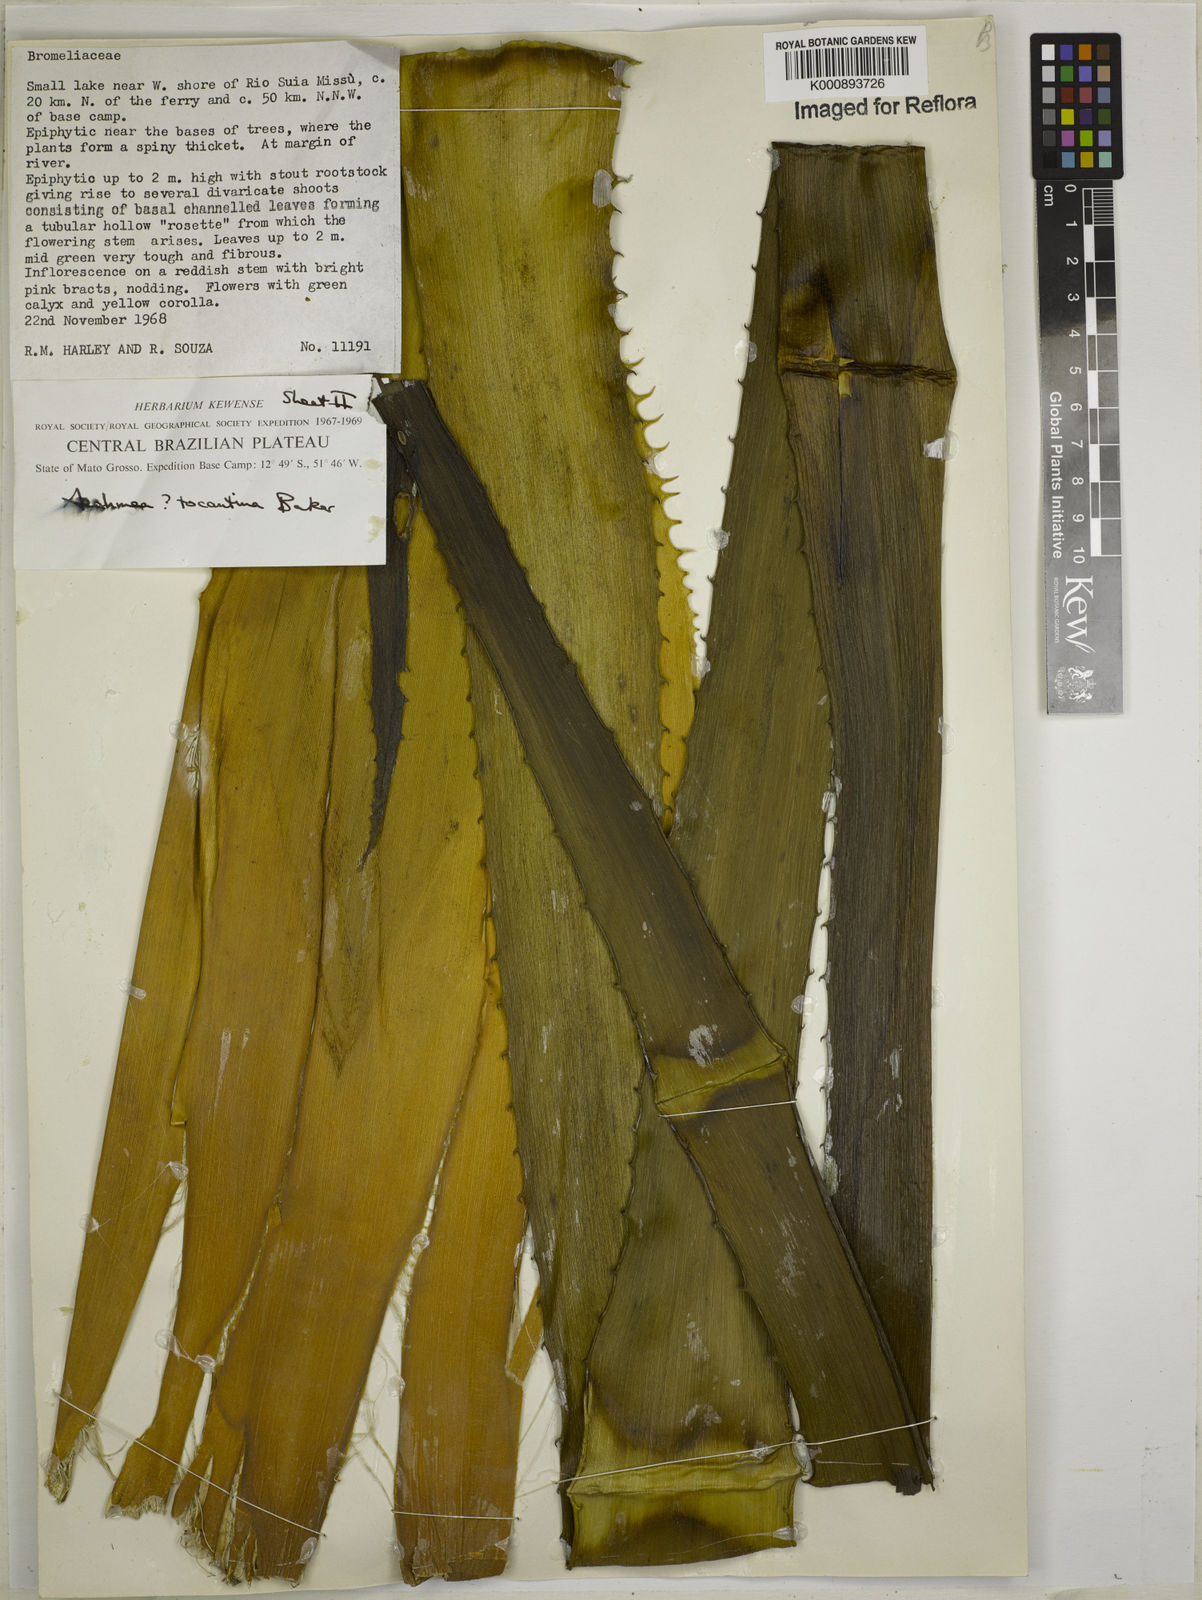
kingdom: Plantae
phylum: Tracheophyta
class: Liliopsida
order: Poales
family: Bromeliaceae
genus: Aechmea
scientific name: Aechmea tocantina
